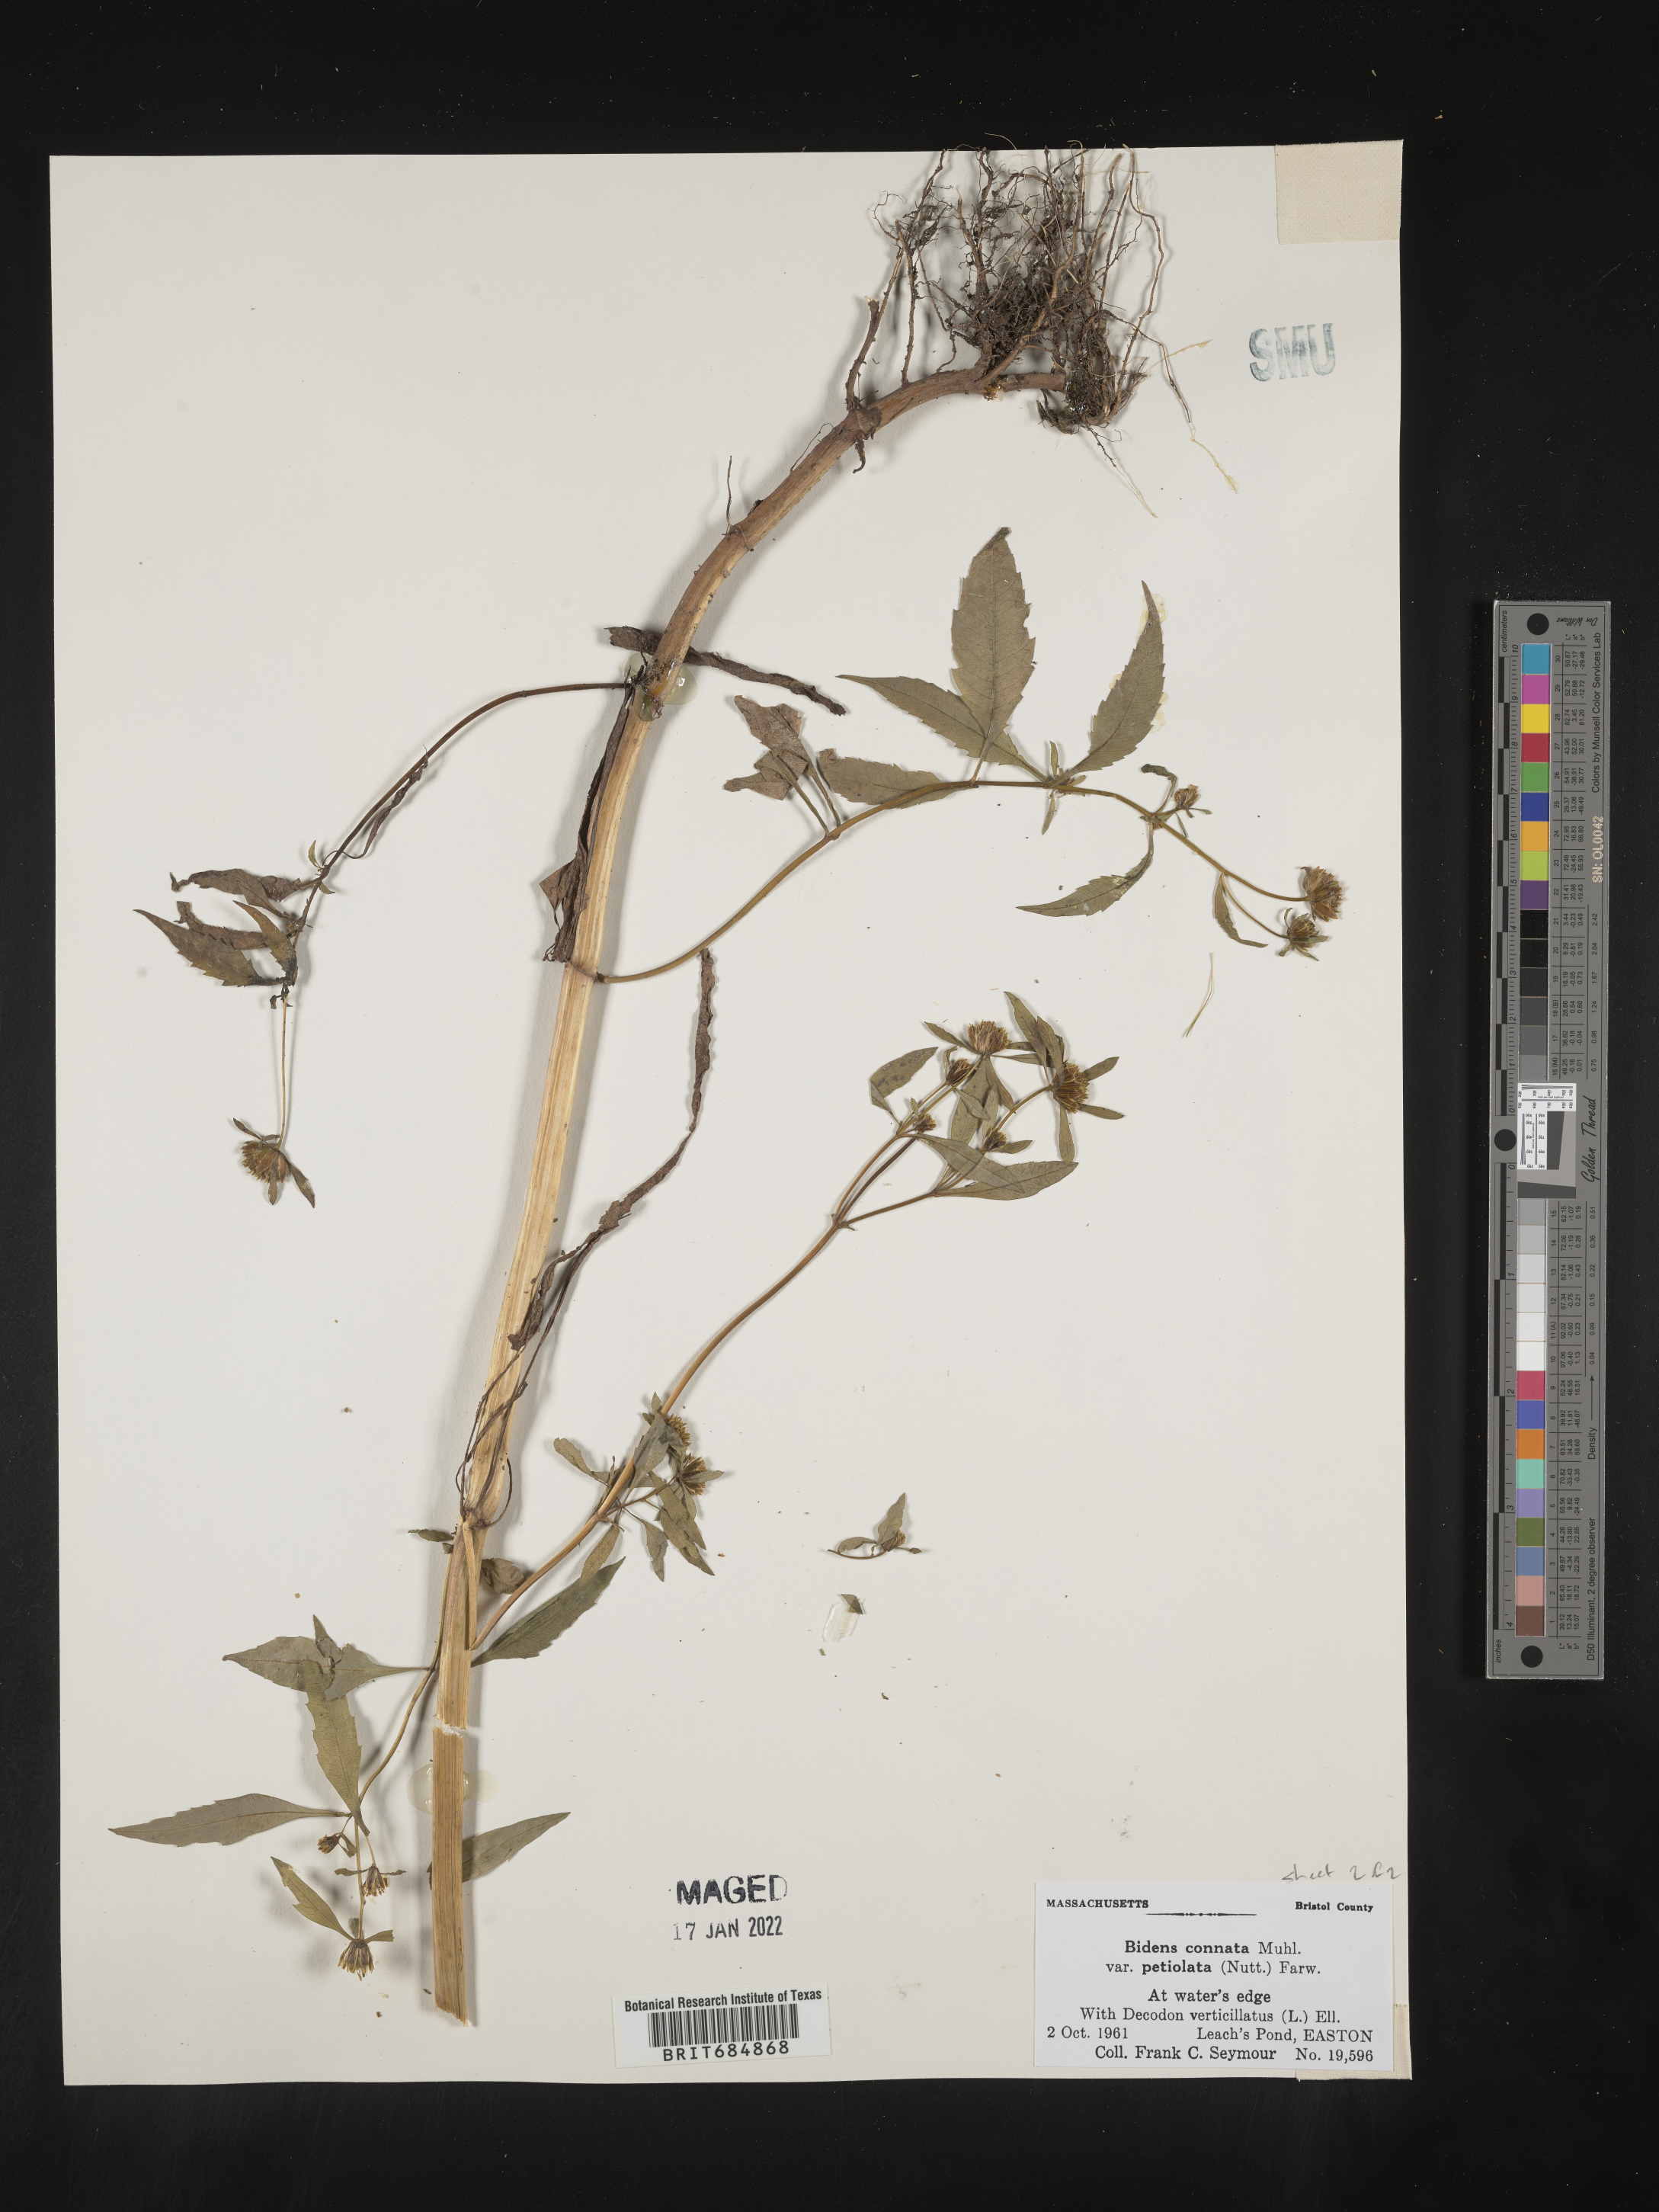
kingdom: Plantae
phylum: Tracheophyta
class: Magnoliopsida
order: Asterales
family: Asteraceae
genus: Bidens
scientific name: Bidens tripartita
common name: Trifid bur-marigold
